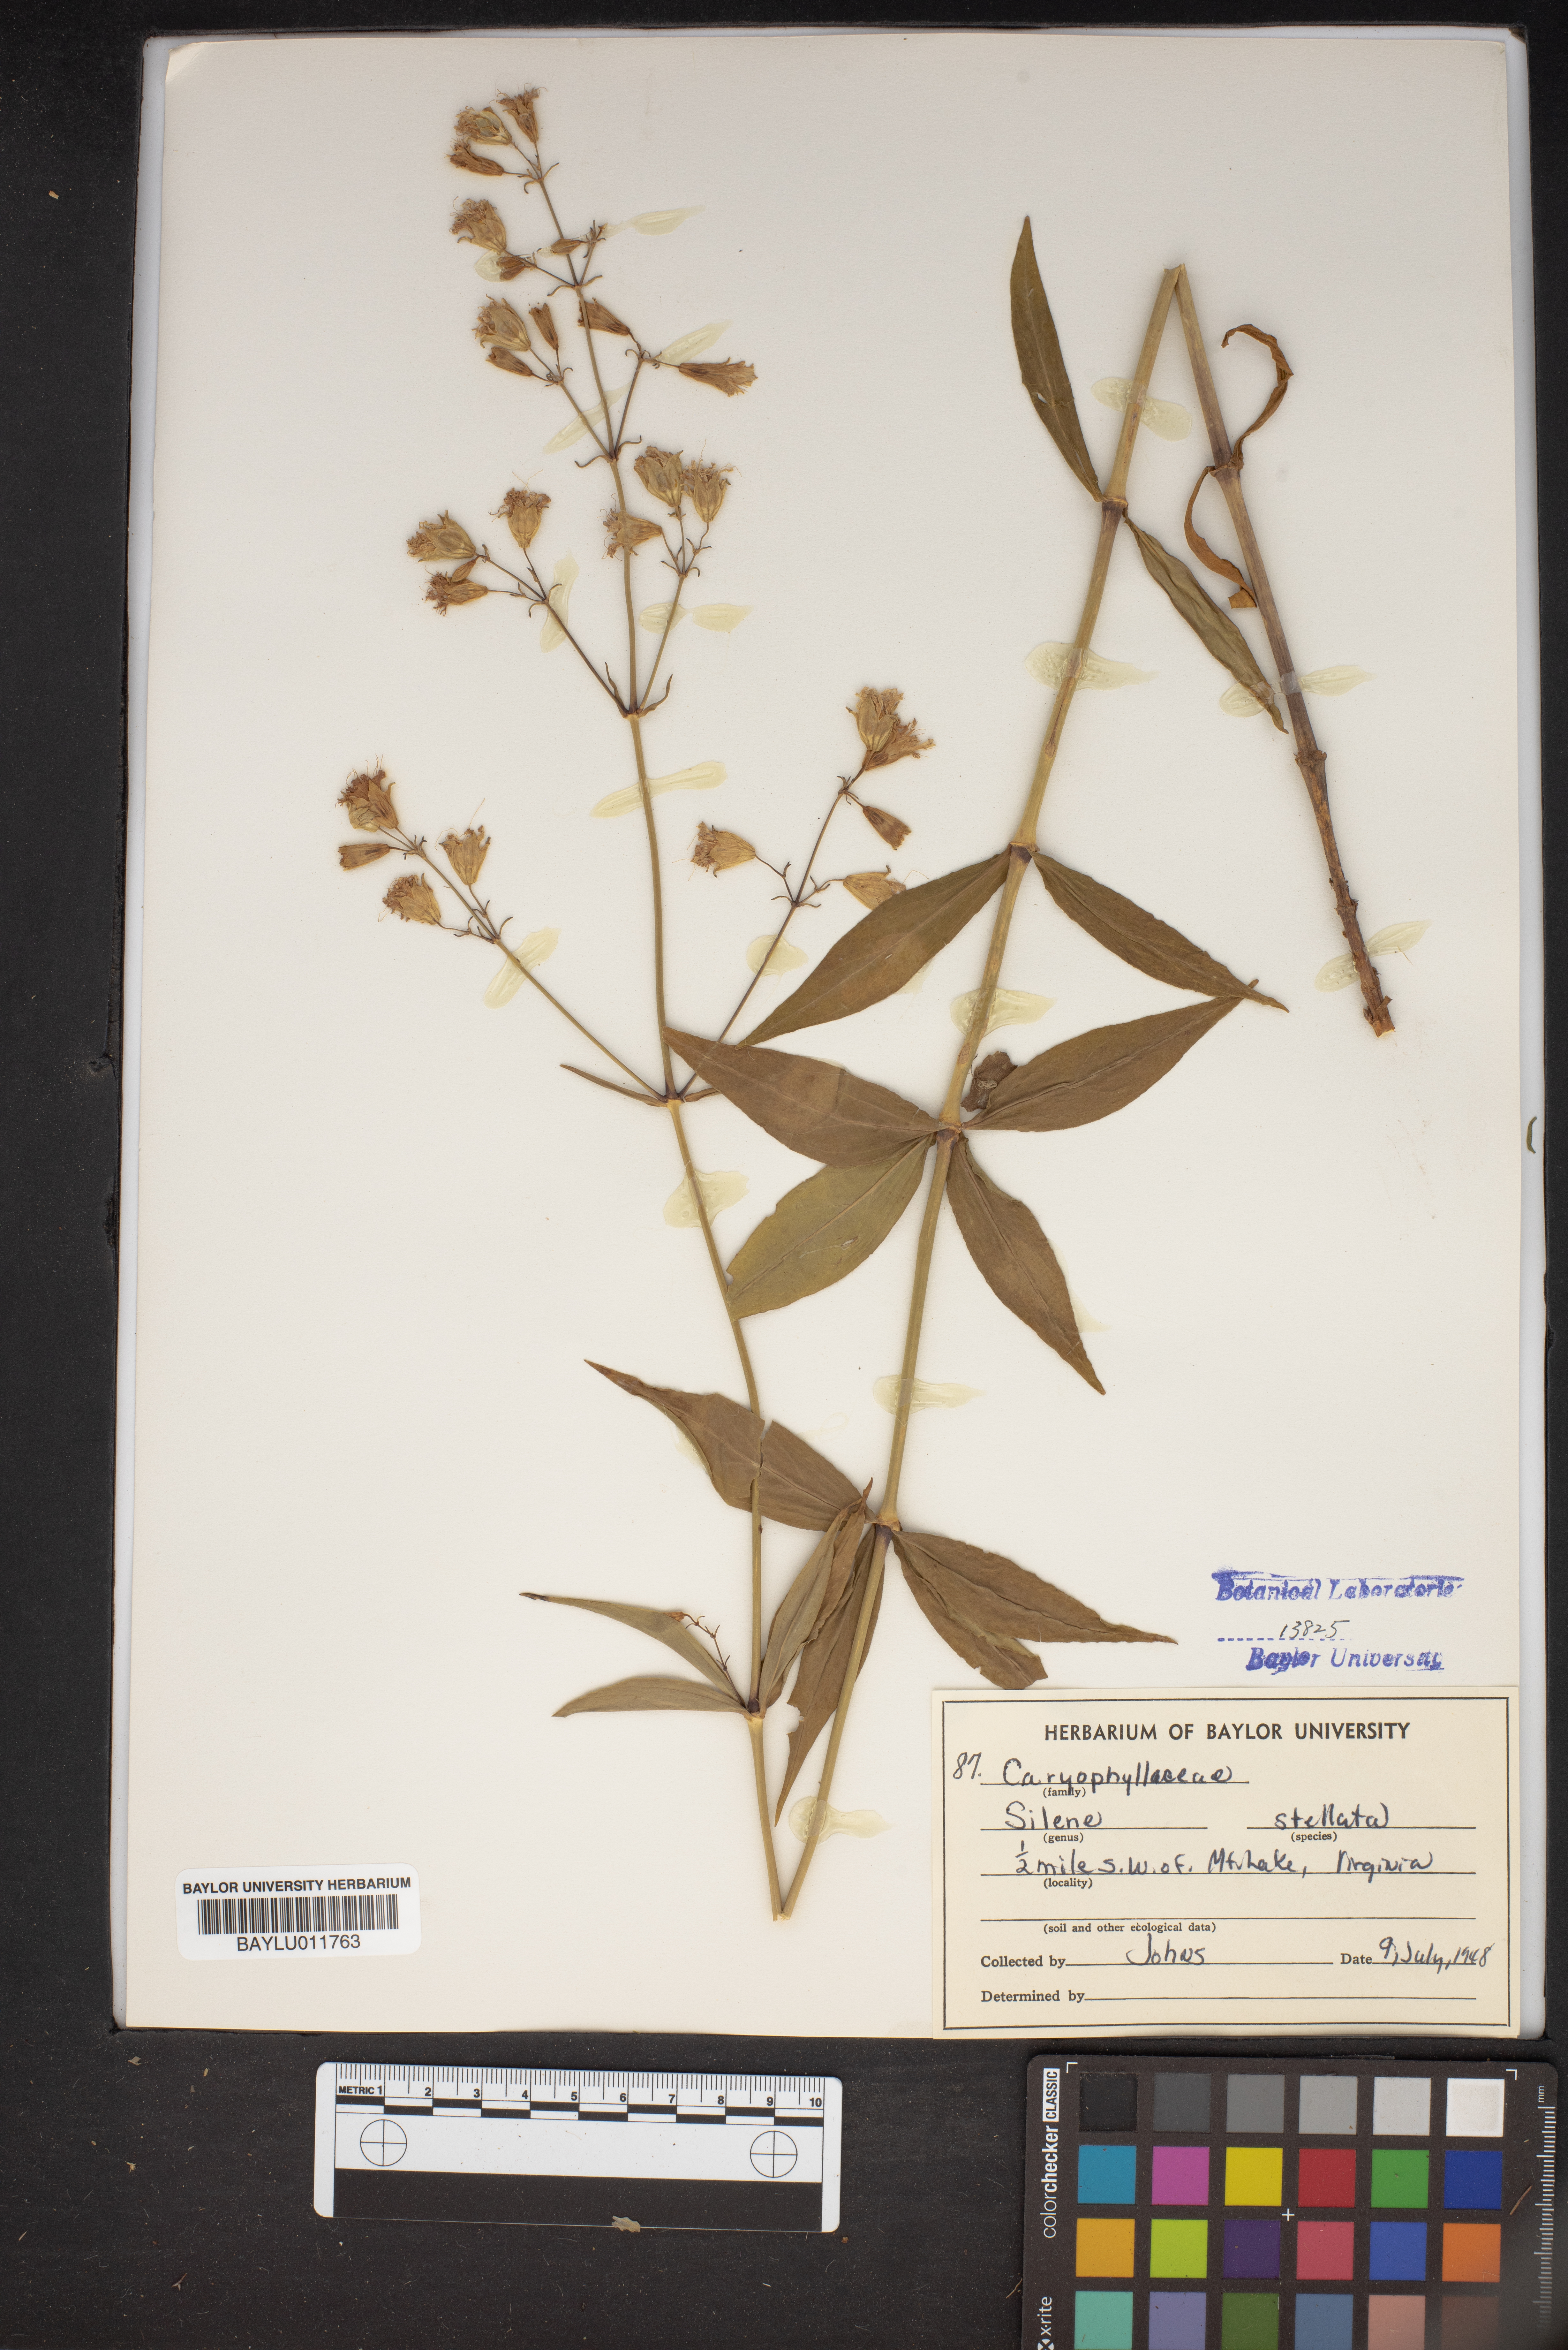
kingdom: Plantae
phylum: Tracheophyta
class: Magnoliopsida
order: Caryophyllales
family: Caryophyllaceae
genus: Silene
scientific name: Silene stellata
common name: Starry campion
